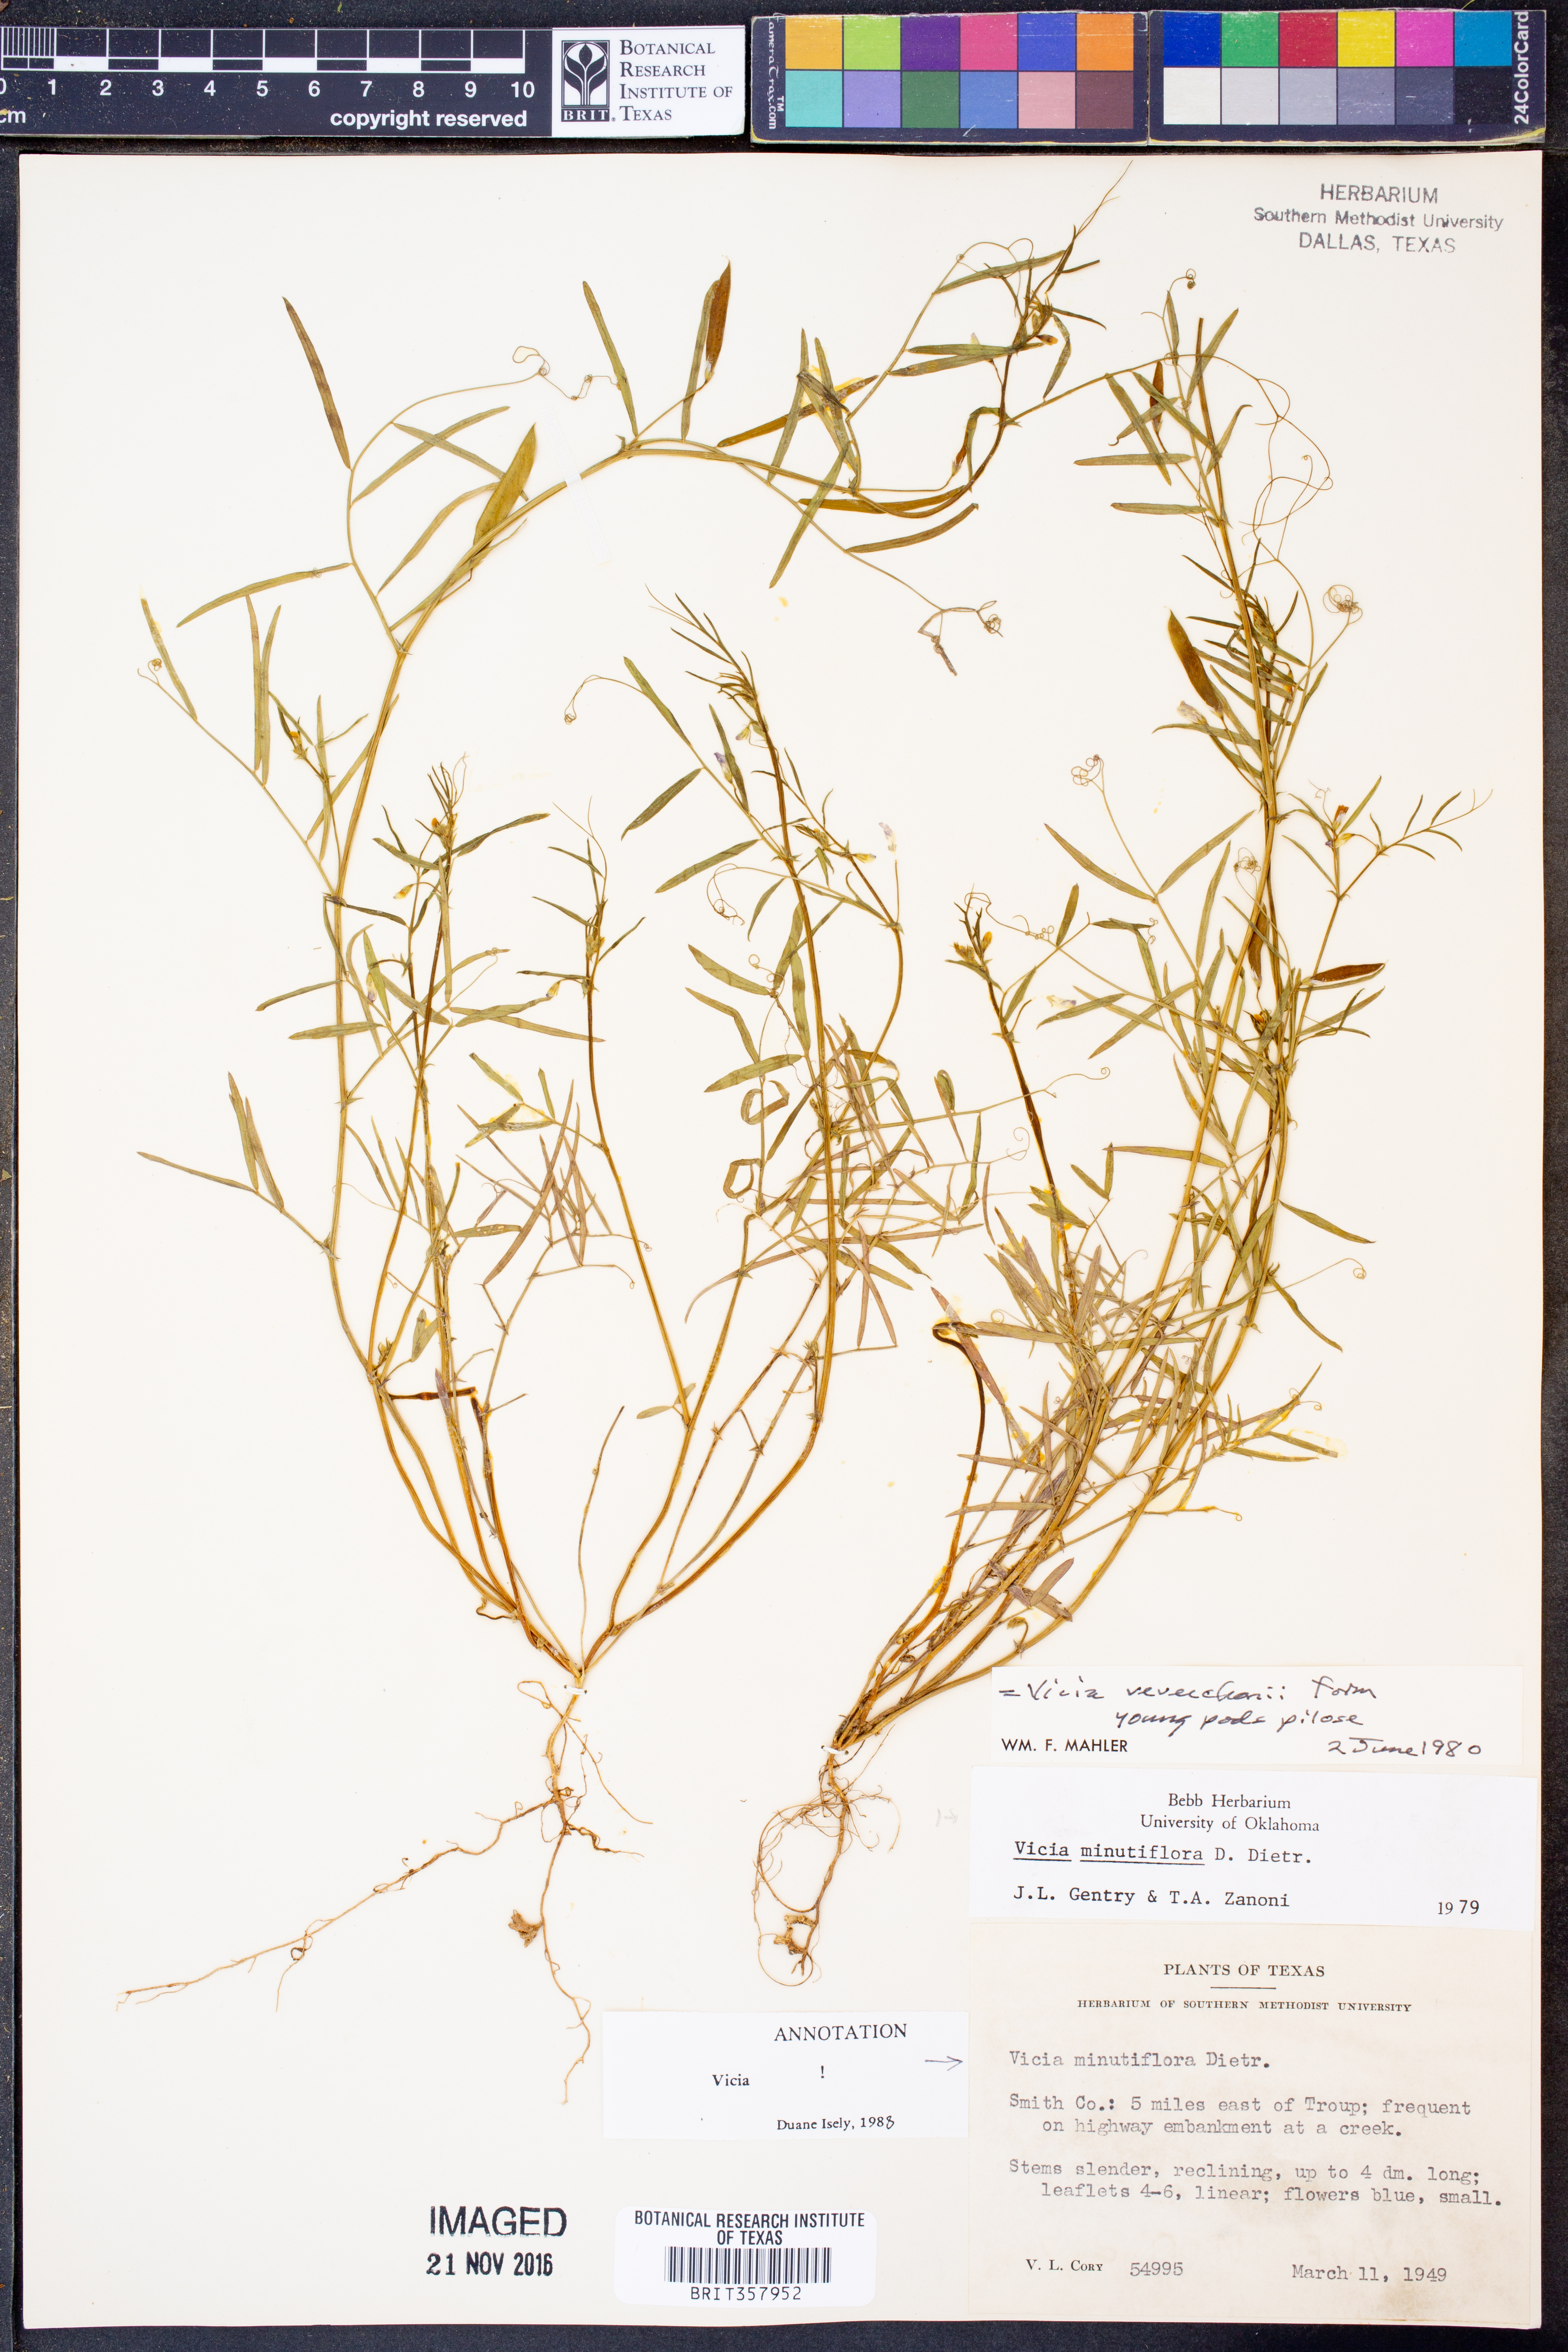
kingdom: Plantae
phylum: Tracheophyta
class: Magnoliopsida
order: Fabales
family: Fabaceae
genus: Vicia
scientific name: Vicia minutiflora
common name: Pygmy-flower vetch
